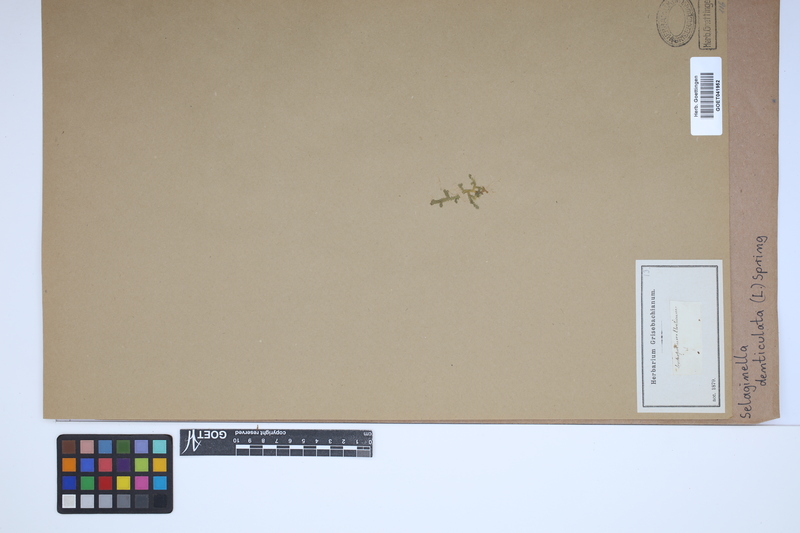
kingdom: Plantae
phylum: Tracheophyta
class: Lycopodiopsida
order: Selaginellales
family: Selaginellaceae
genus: Selaginella
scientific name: Selaginella denticulata
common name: Toothed-leaved clubmoss
